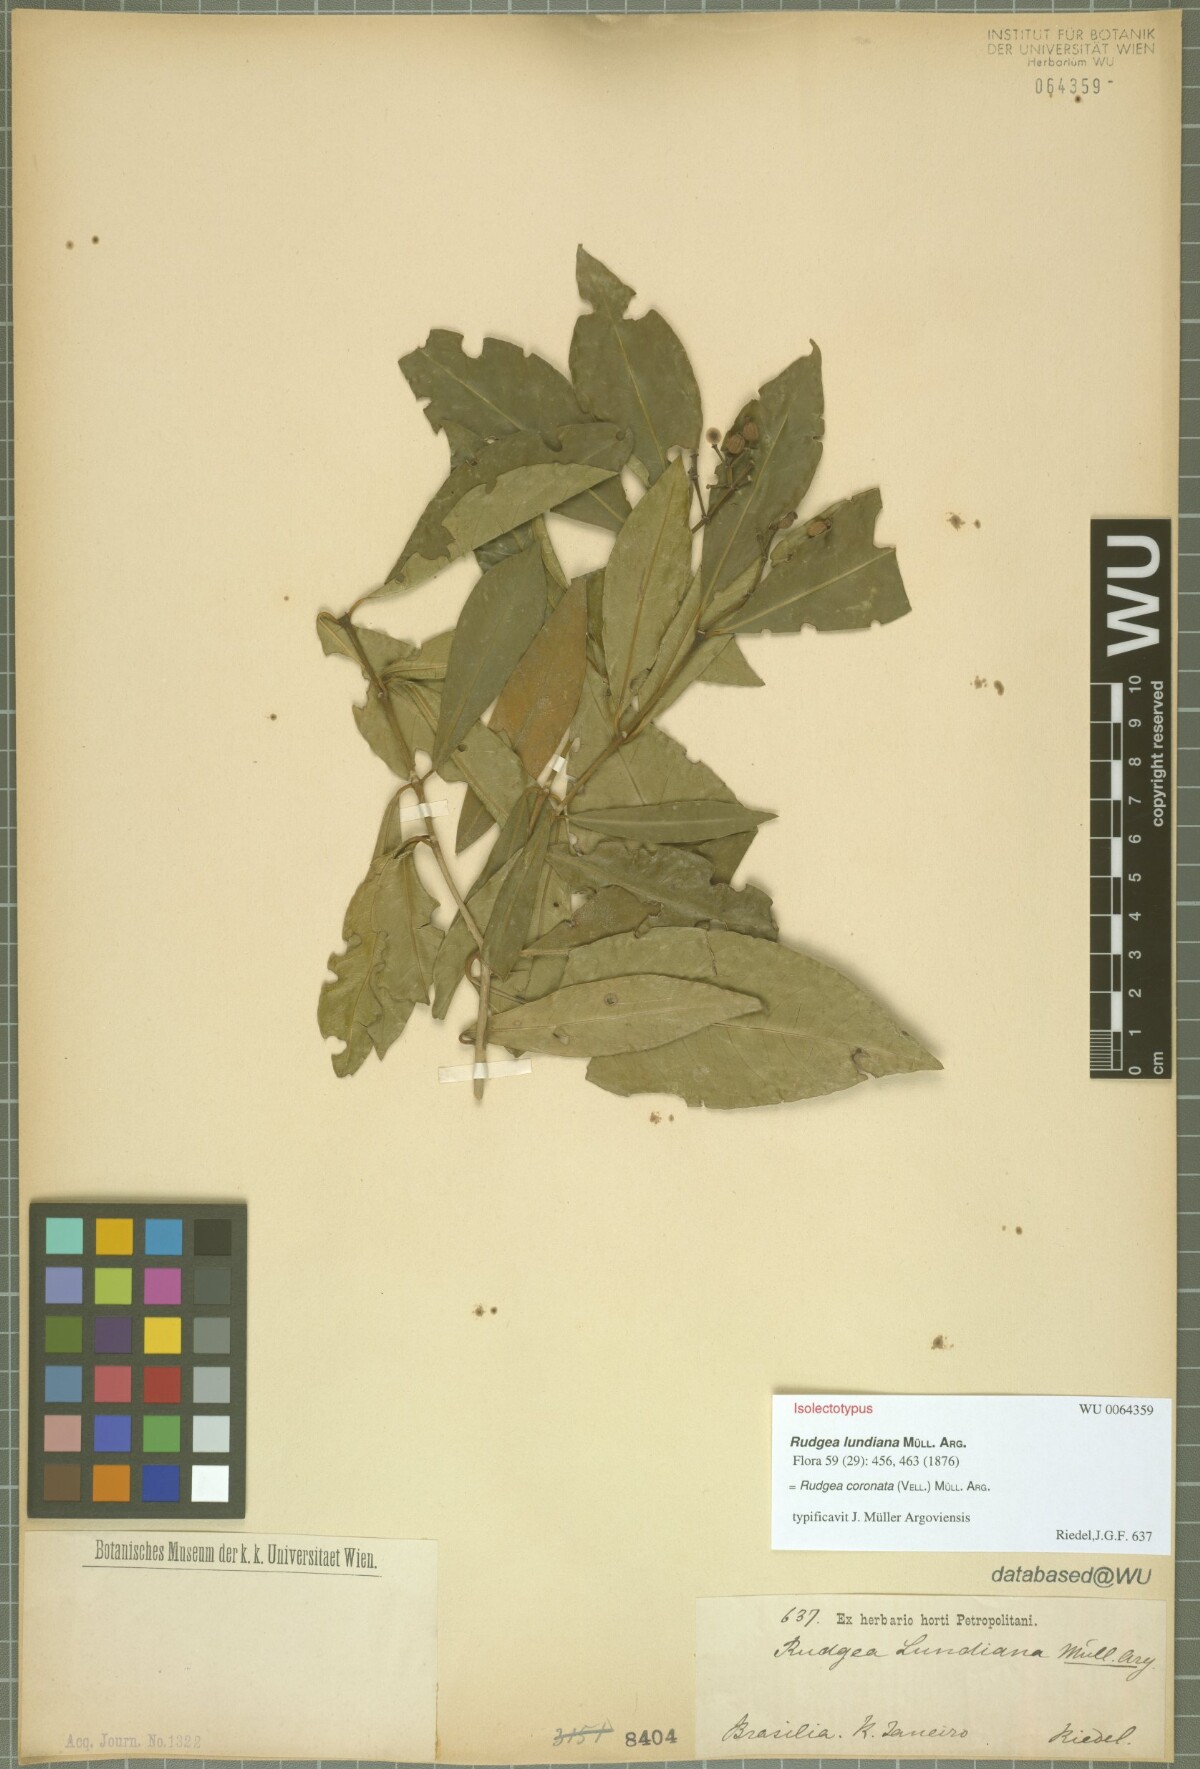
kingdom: Plantae
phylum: Tracheophyta
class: Magnoliopsida
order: Gentianales
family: Rubiaceae
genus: Rudgea
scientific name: Rudgea coronata
